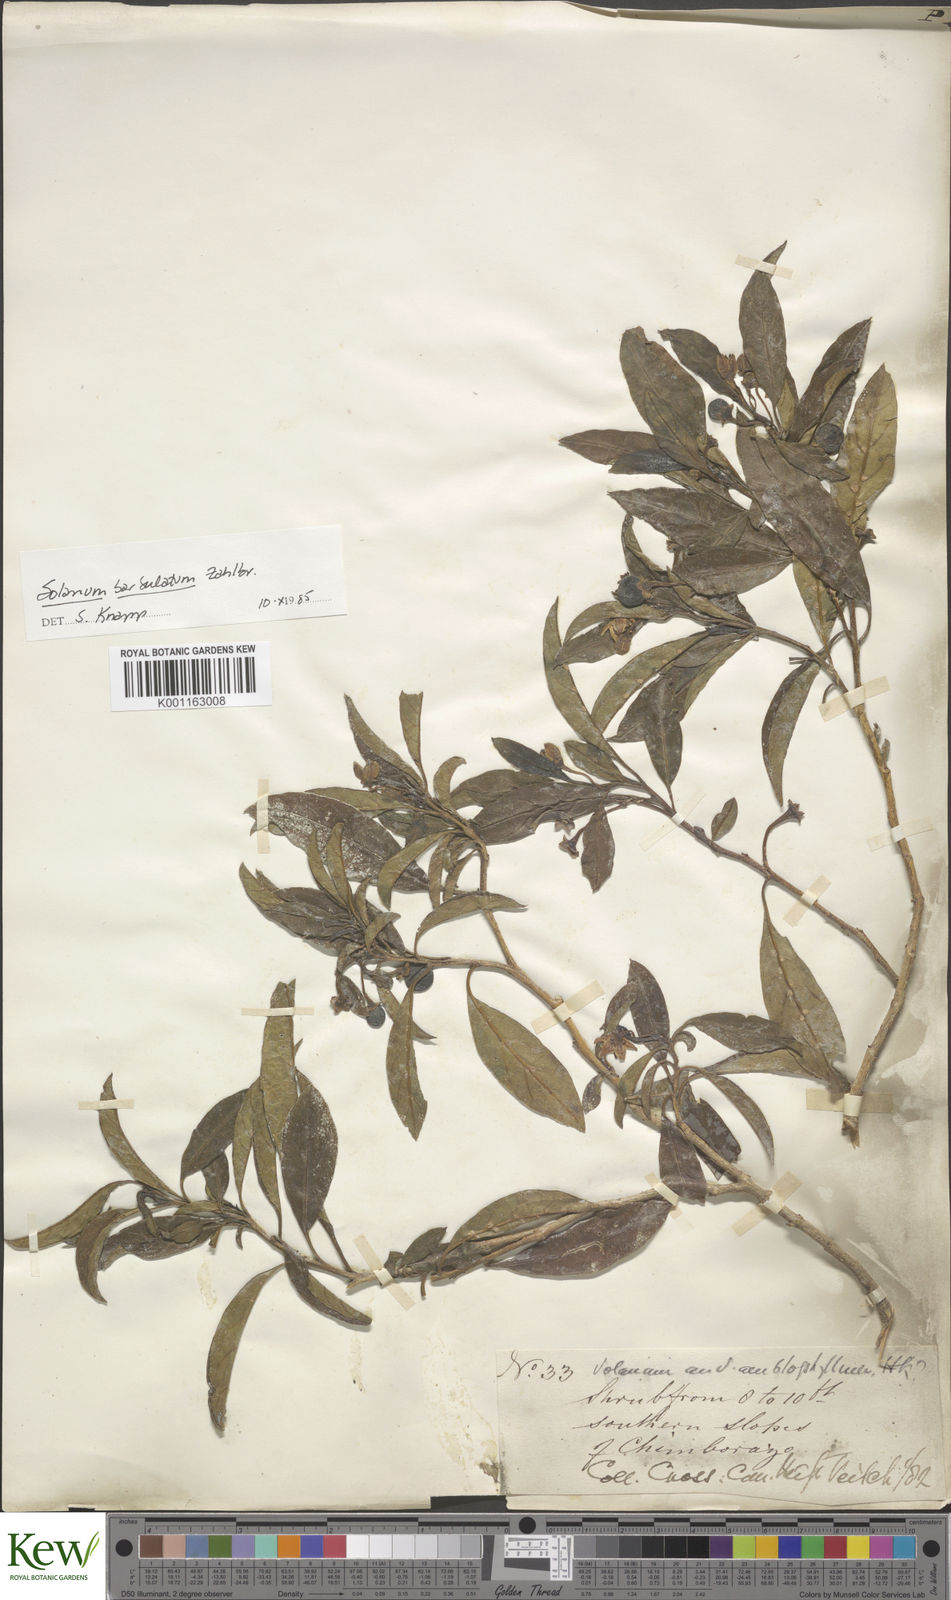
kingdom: Plantae
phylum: Tracheophyta
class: Magnoliopsida
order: Solanales
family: Solanaceae
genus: Solanum
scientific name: Solanum barbulatum
